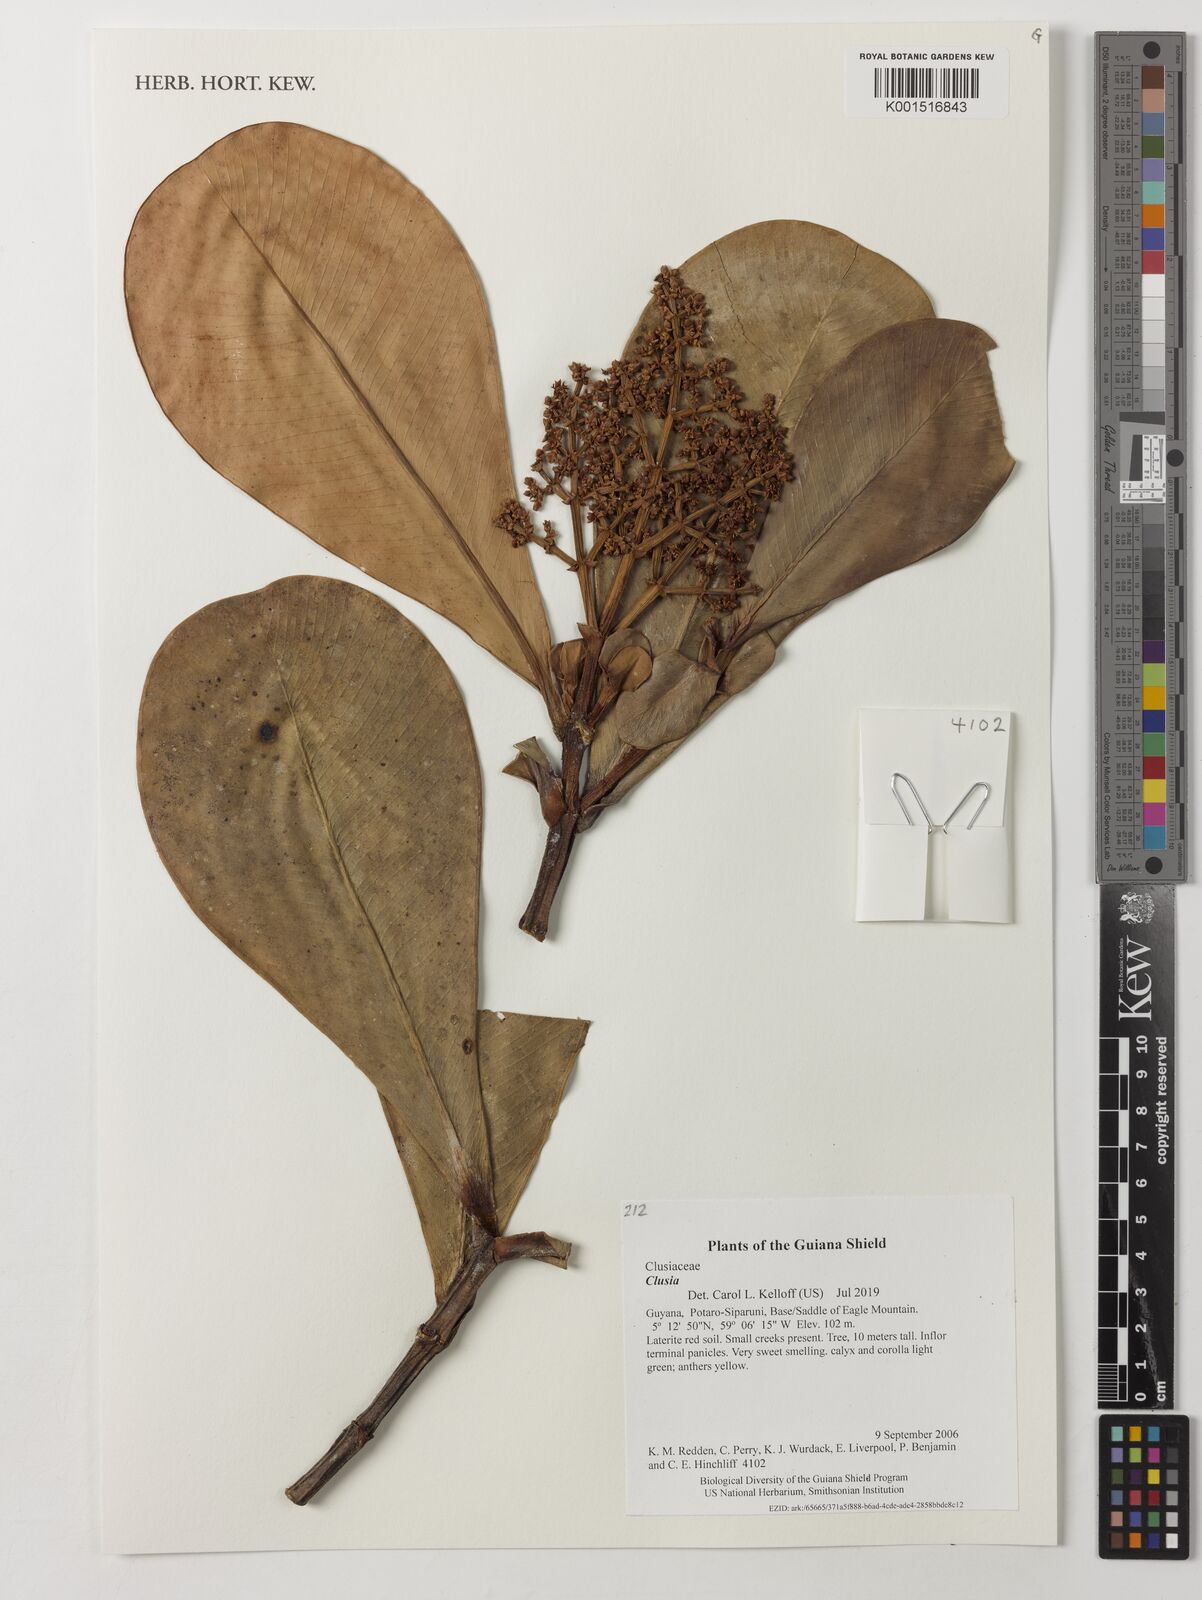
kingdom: Plantae
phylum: Tracheophyta
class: Magnoliopsida
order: Malpighiales
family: Clusiaceae
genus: Clusia
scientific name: Clusia
